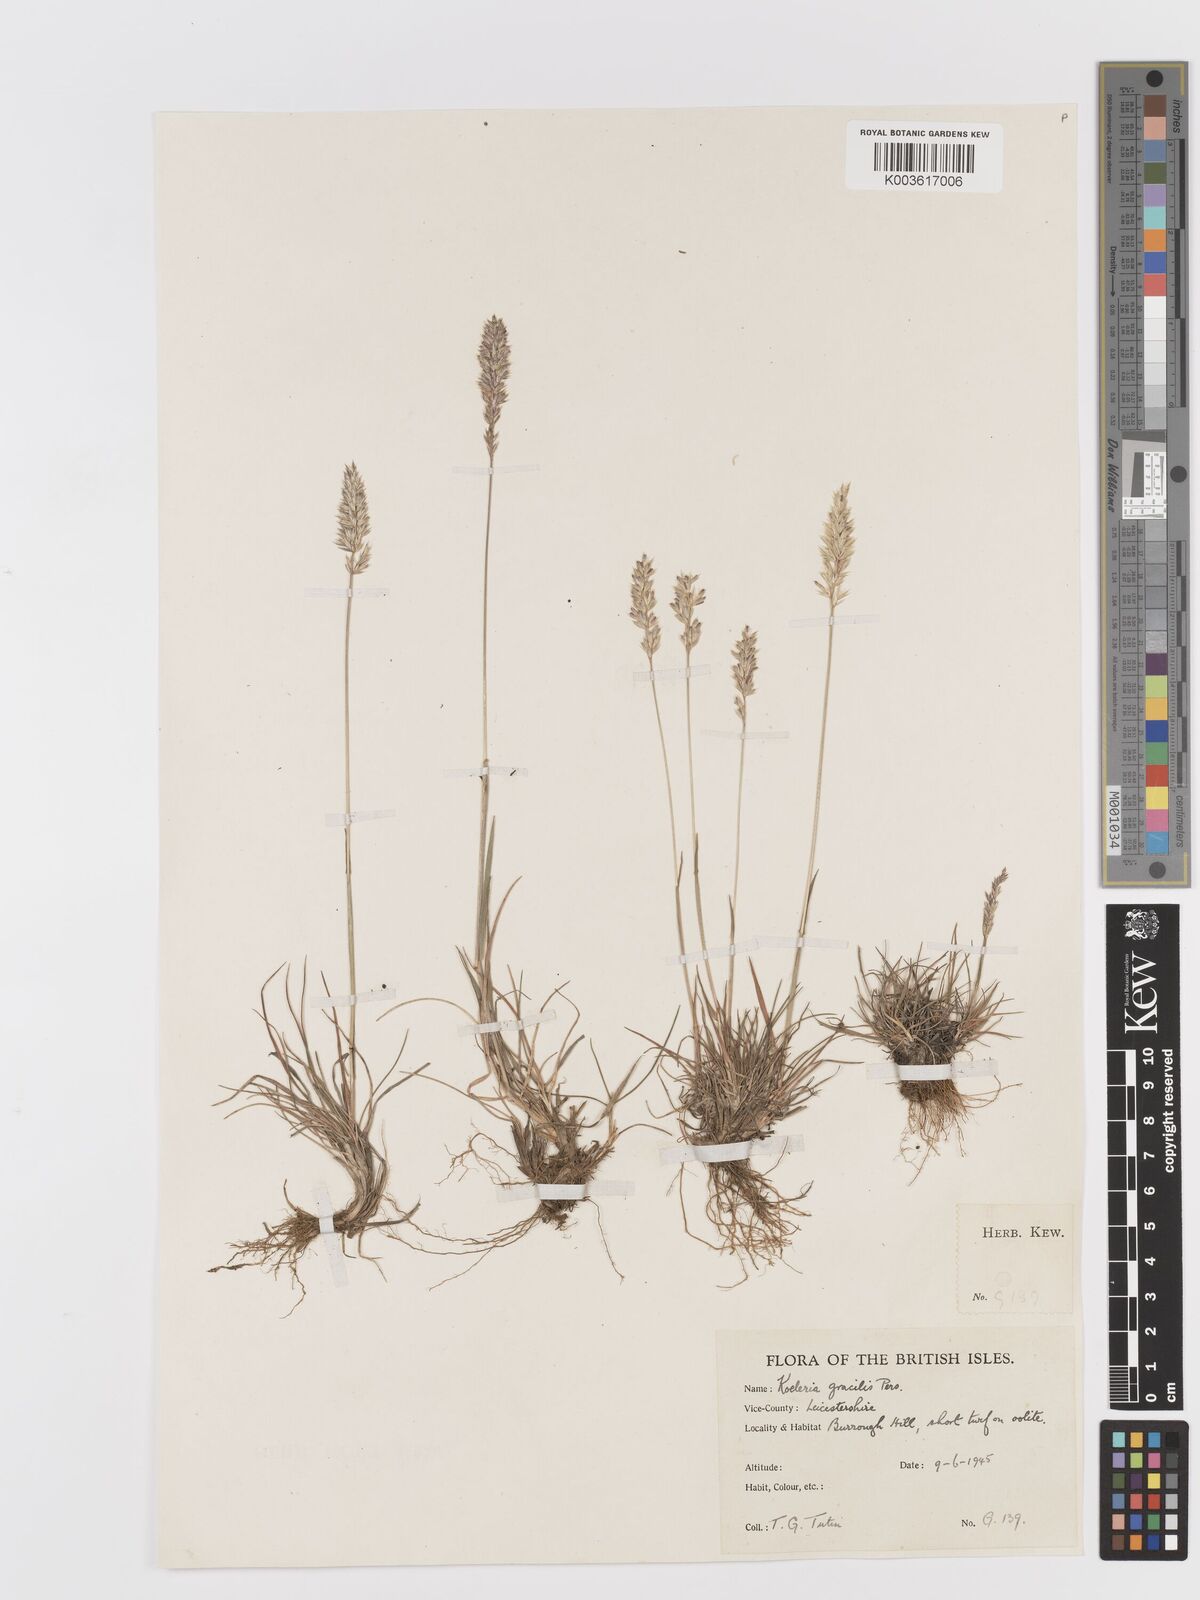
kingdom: Plantae
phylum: Tracheophyta
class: Liliopsida
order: Poales
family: Poaceae
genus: Koeleria
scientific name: Koeleria macrantha
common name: Crested hair-grass
